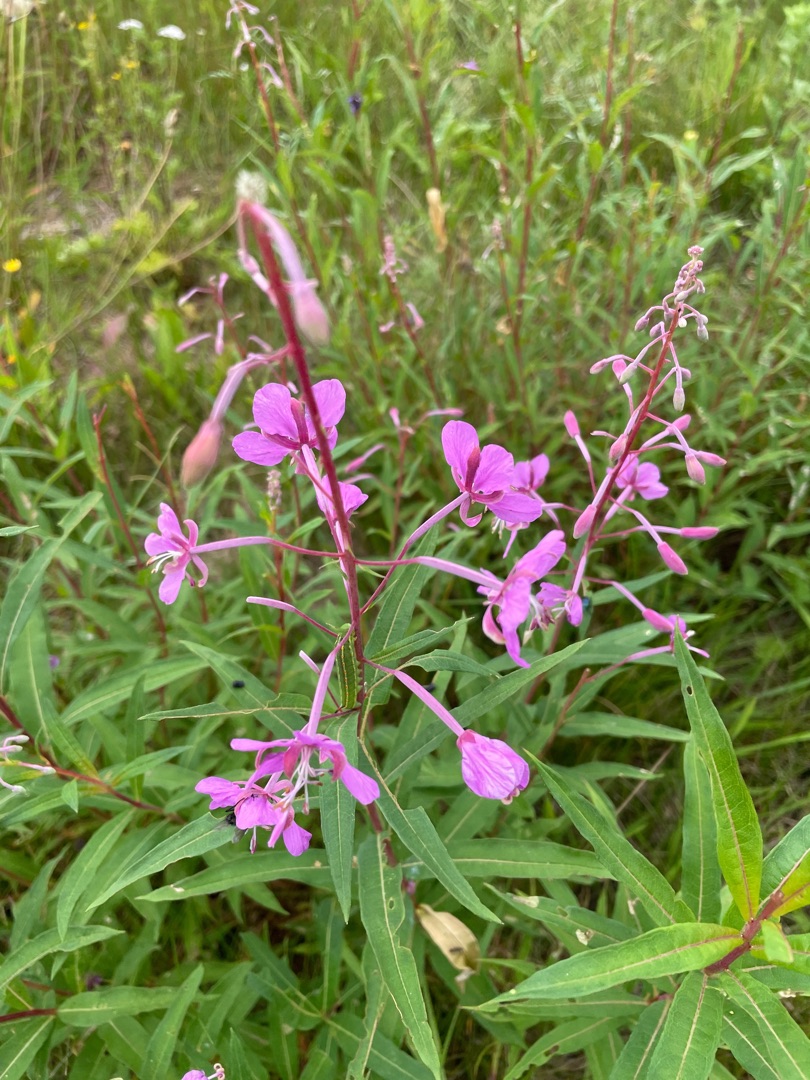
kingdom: Plantae
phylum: Tracheophyta
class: Magnoliopsida
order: Myrtales
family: Onagraceae
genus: Chamaenerion
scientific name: Chamaenerion angustifolium
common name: Gederams
